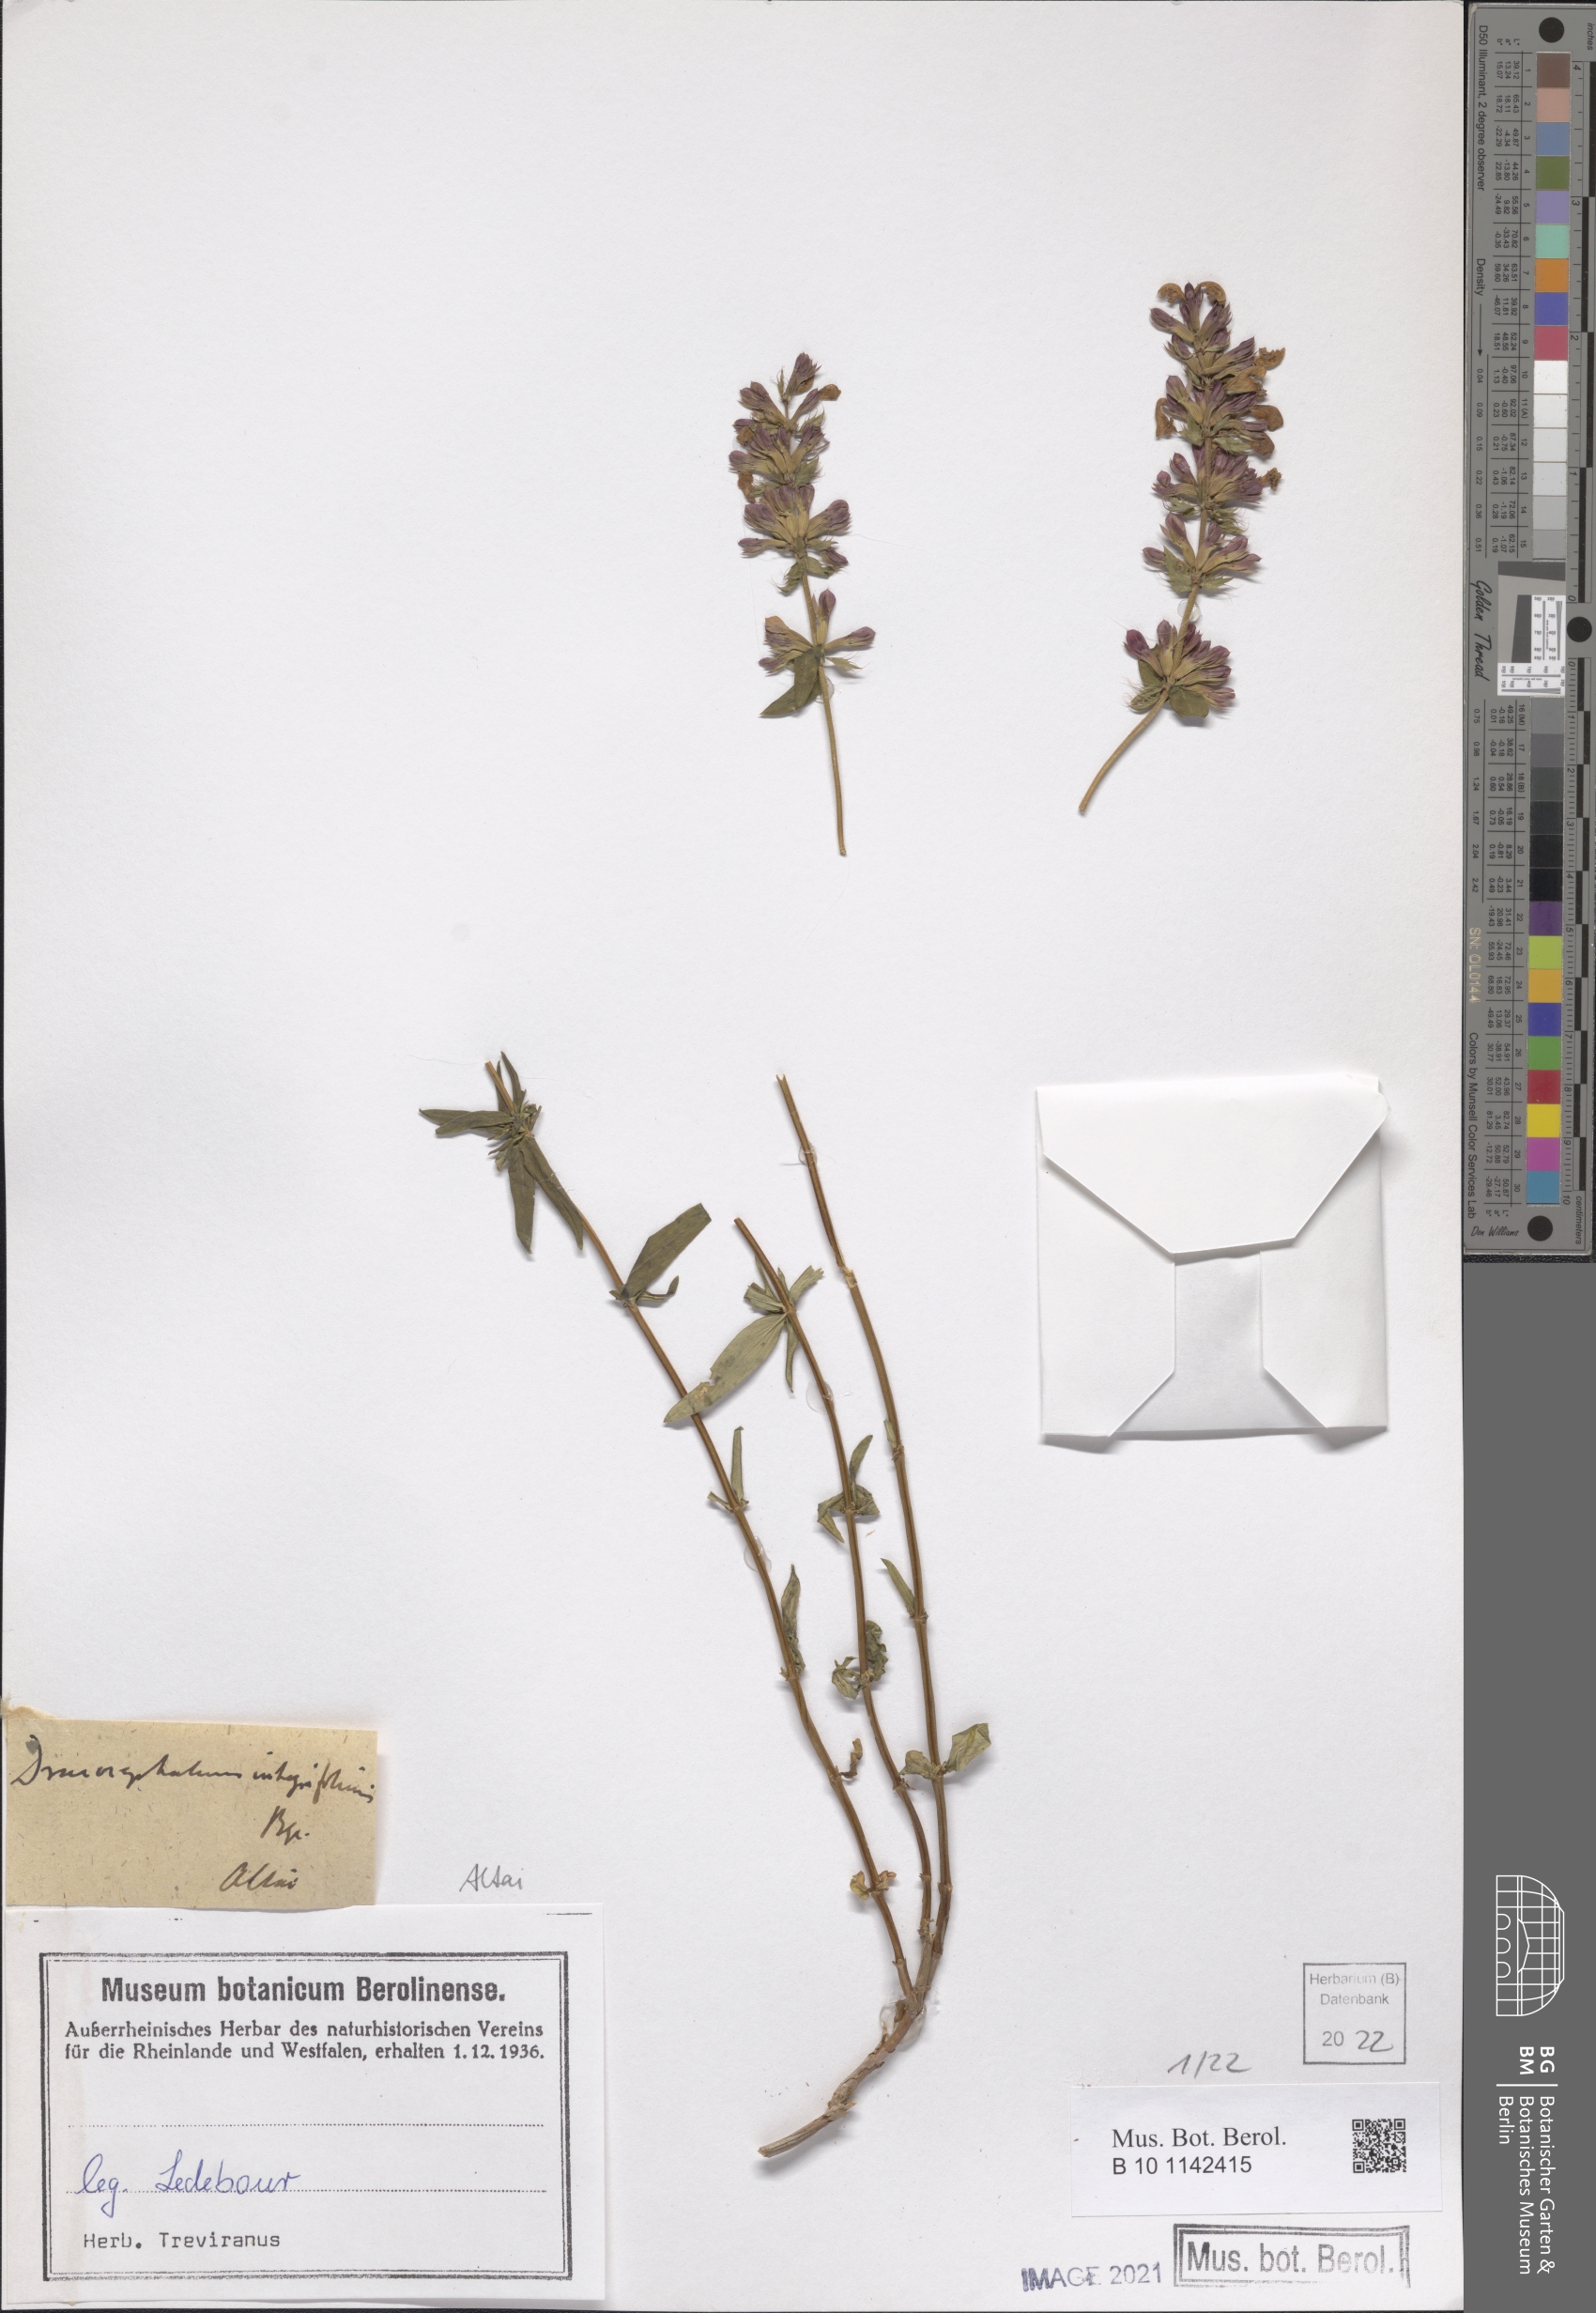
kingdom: Plantae
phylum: Tracheophyta
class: Magnoliopsida
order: Lamiales
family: Lamiaceae
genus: Dracocephalum
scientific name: Dracocephalum integrifolium
